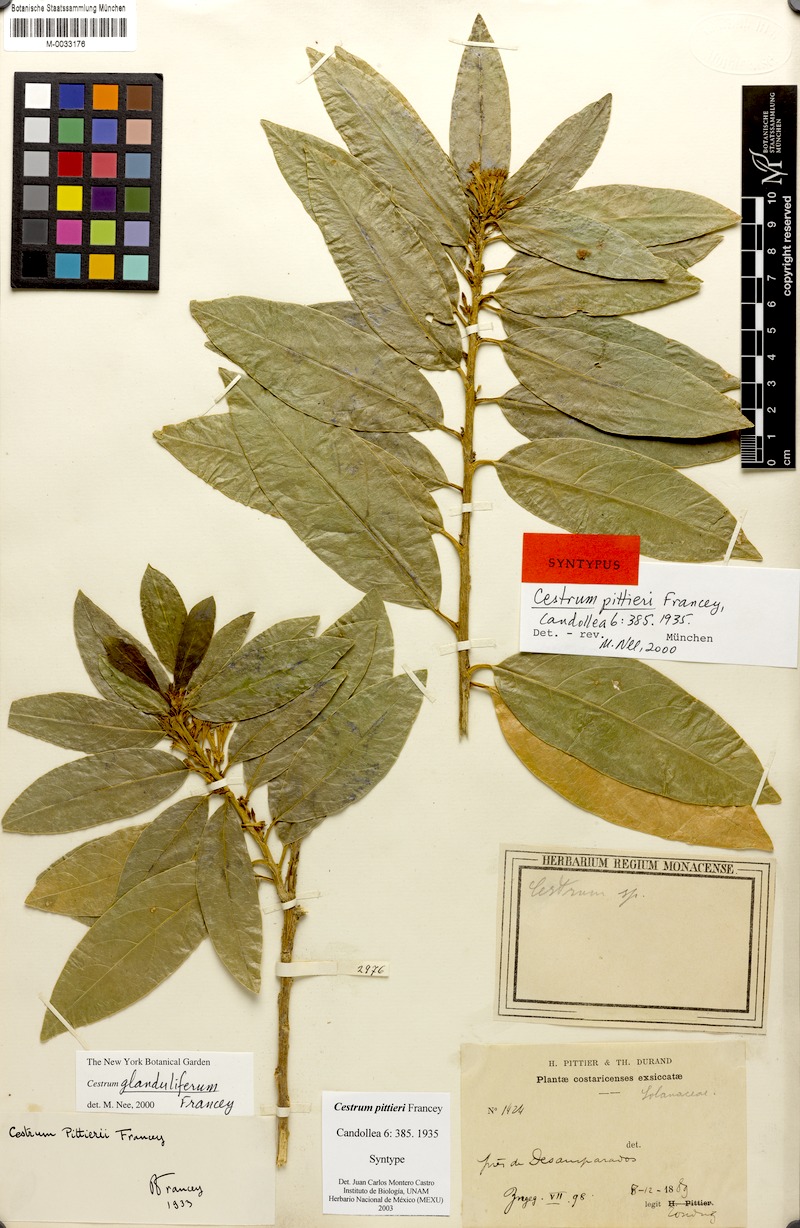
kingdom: Plantae
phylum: Tracheophyta
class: Magnoliopsida
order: Solanales
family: Solanaceae
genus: Cestrum
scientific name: Cestrum glanduliferum
